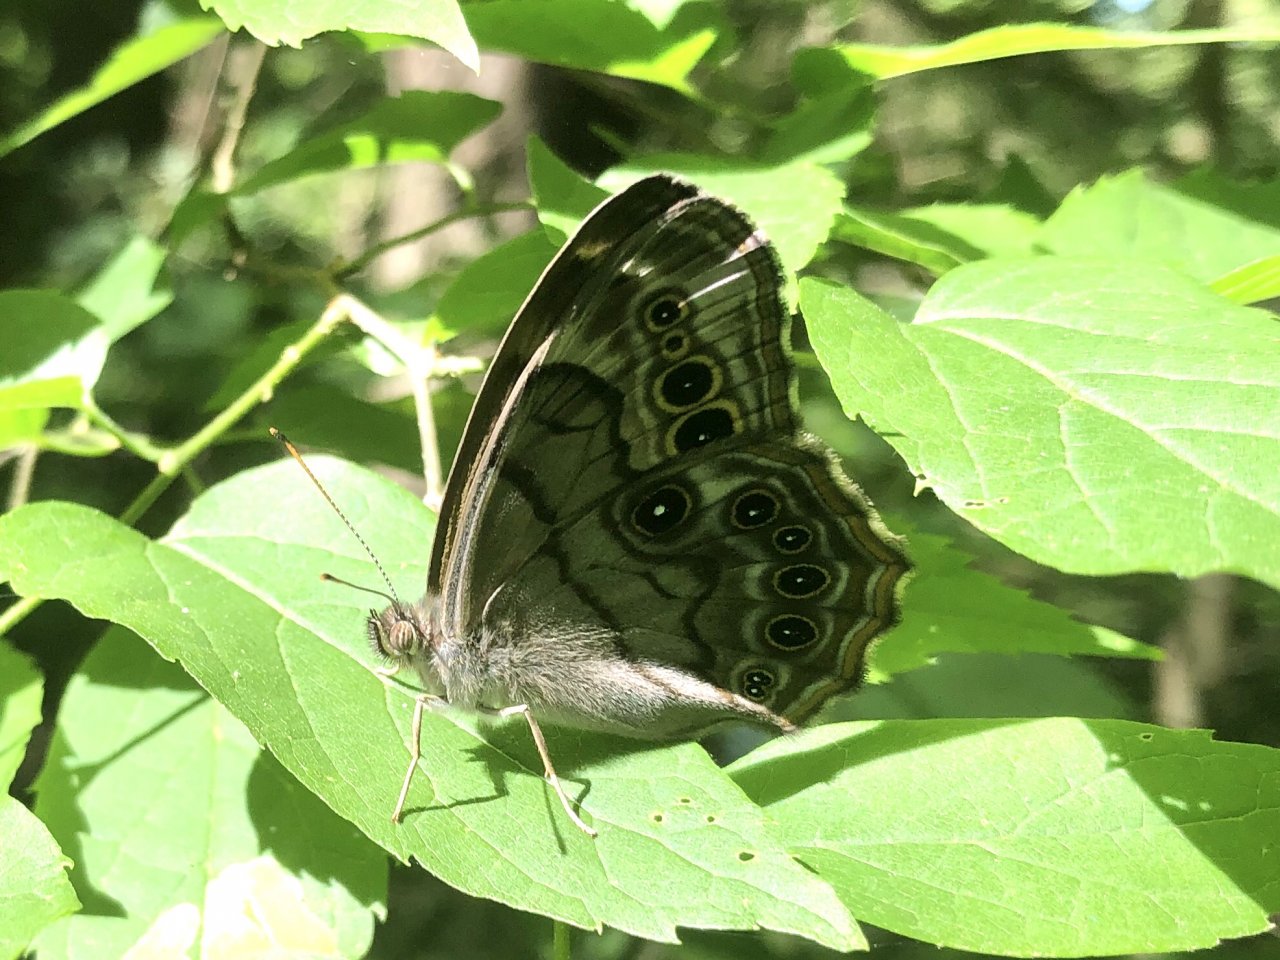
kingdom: Animalia
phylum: Arthropoda
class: Insecta
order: Lepidoptera
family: Nymphalidae
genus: Lethe
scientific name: Lethe anthedon
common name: Northern Pearly-Eye
